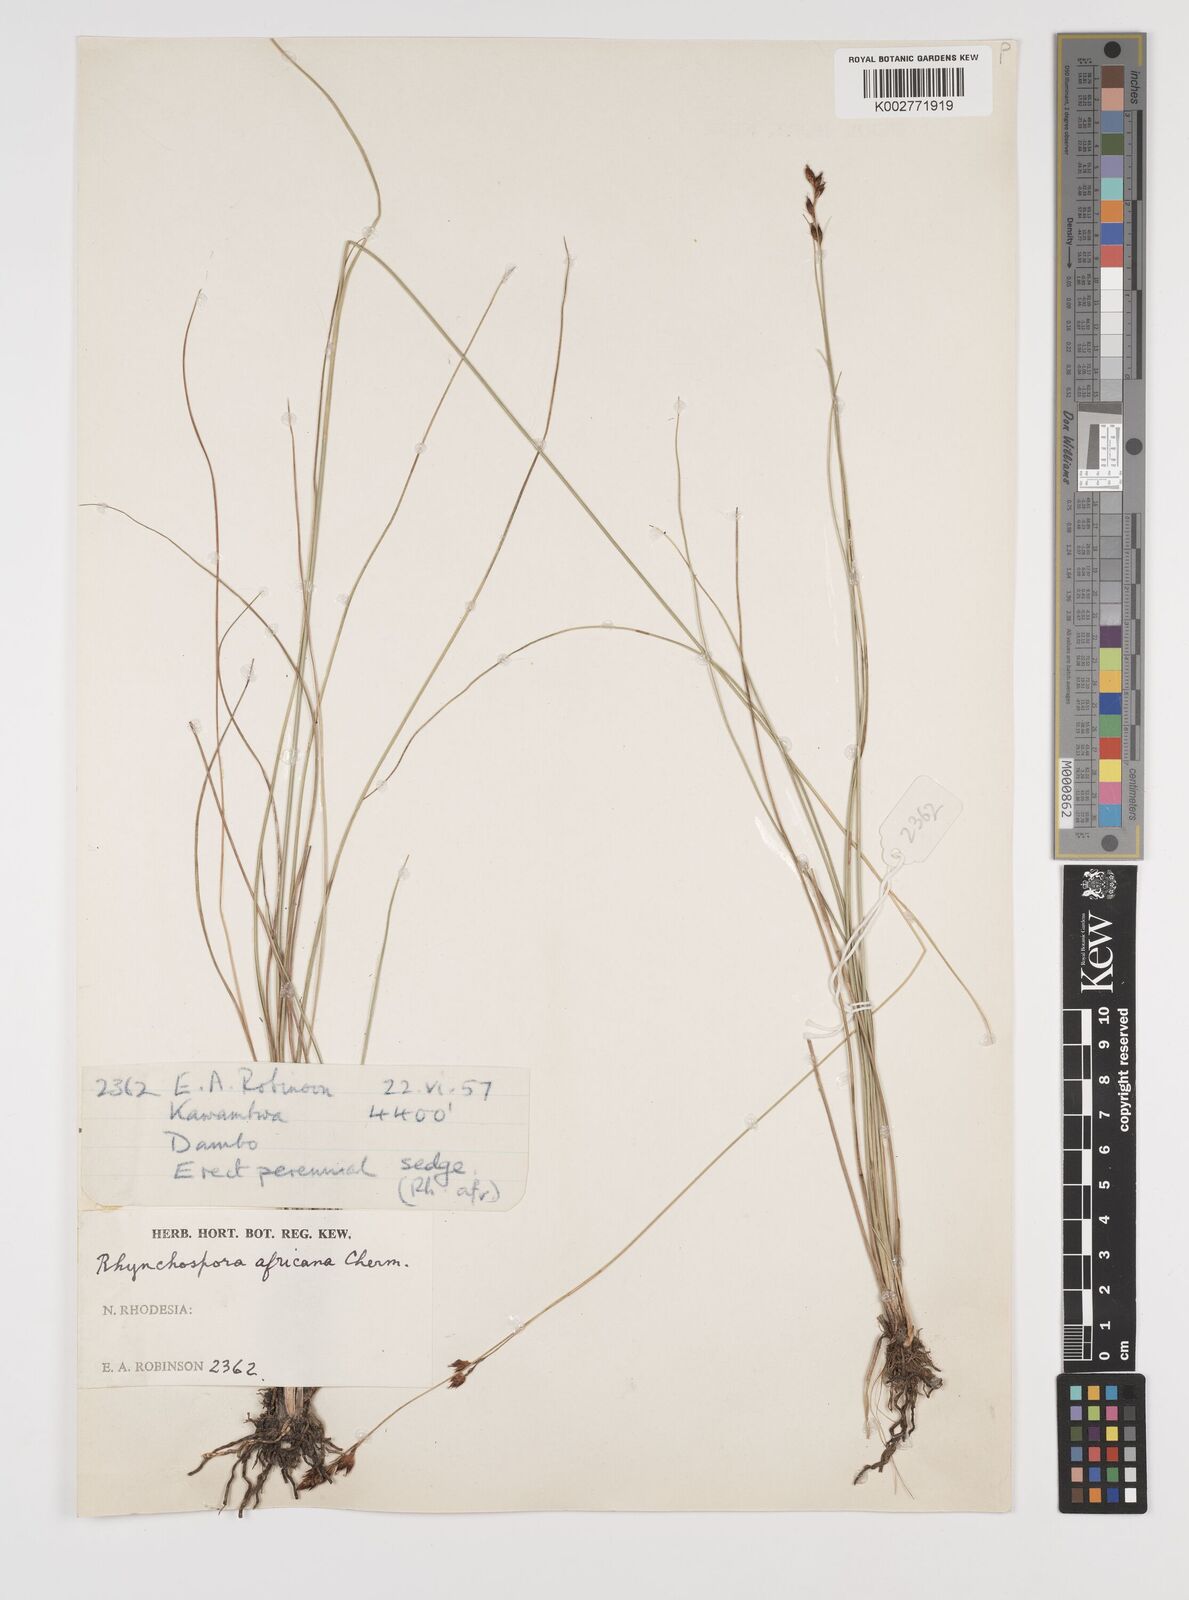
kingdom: Plantae
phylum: Tracheophyta
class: Liliopsida
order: Poales
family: Cyperaceae
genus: Rhynchospora
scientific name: Rhynchospora angolensis
